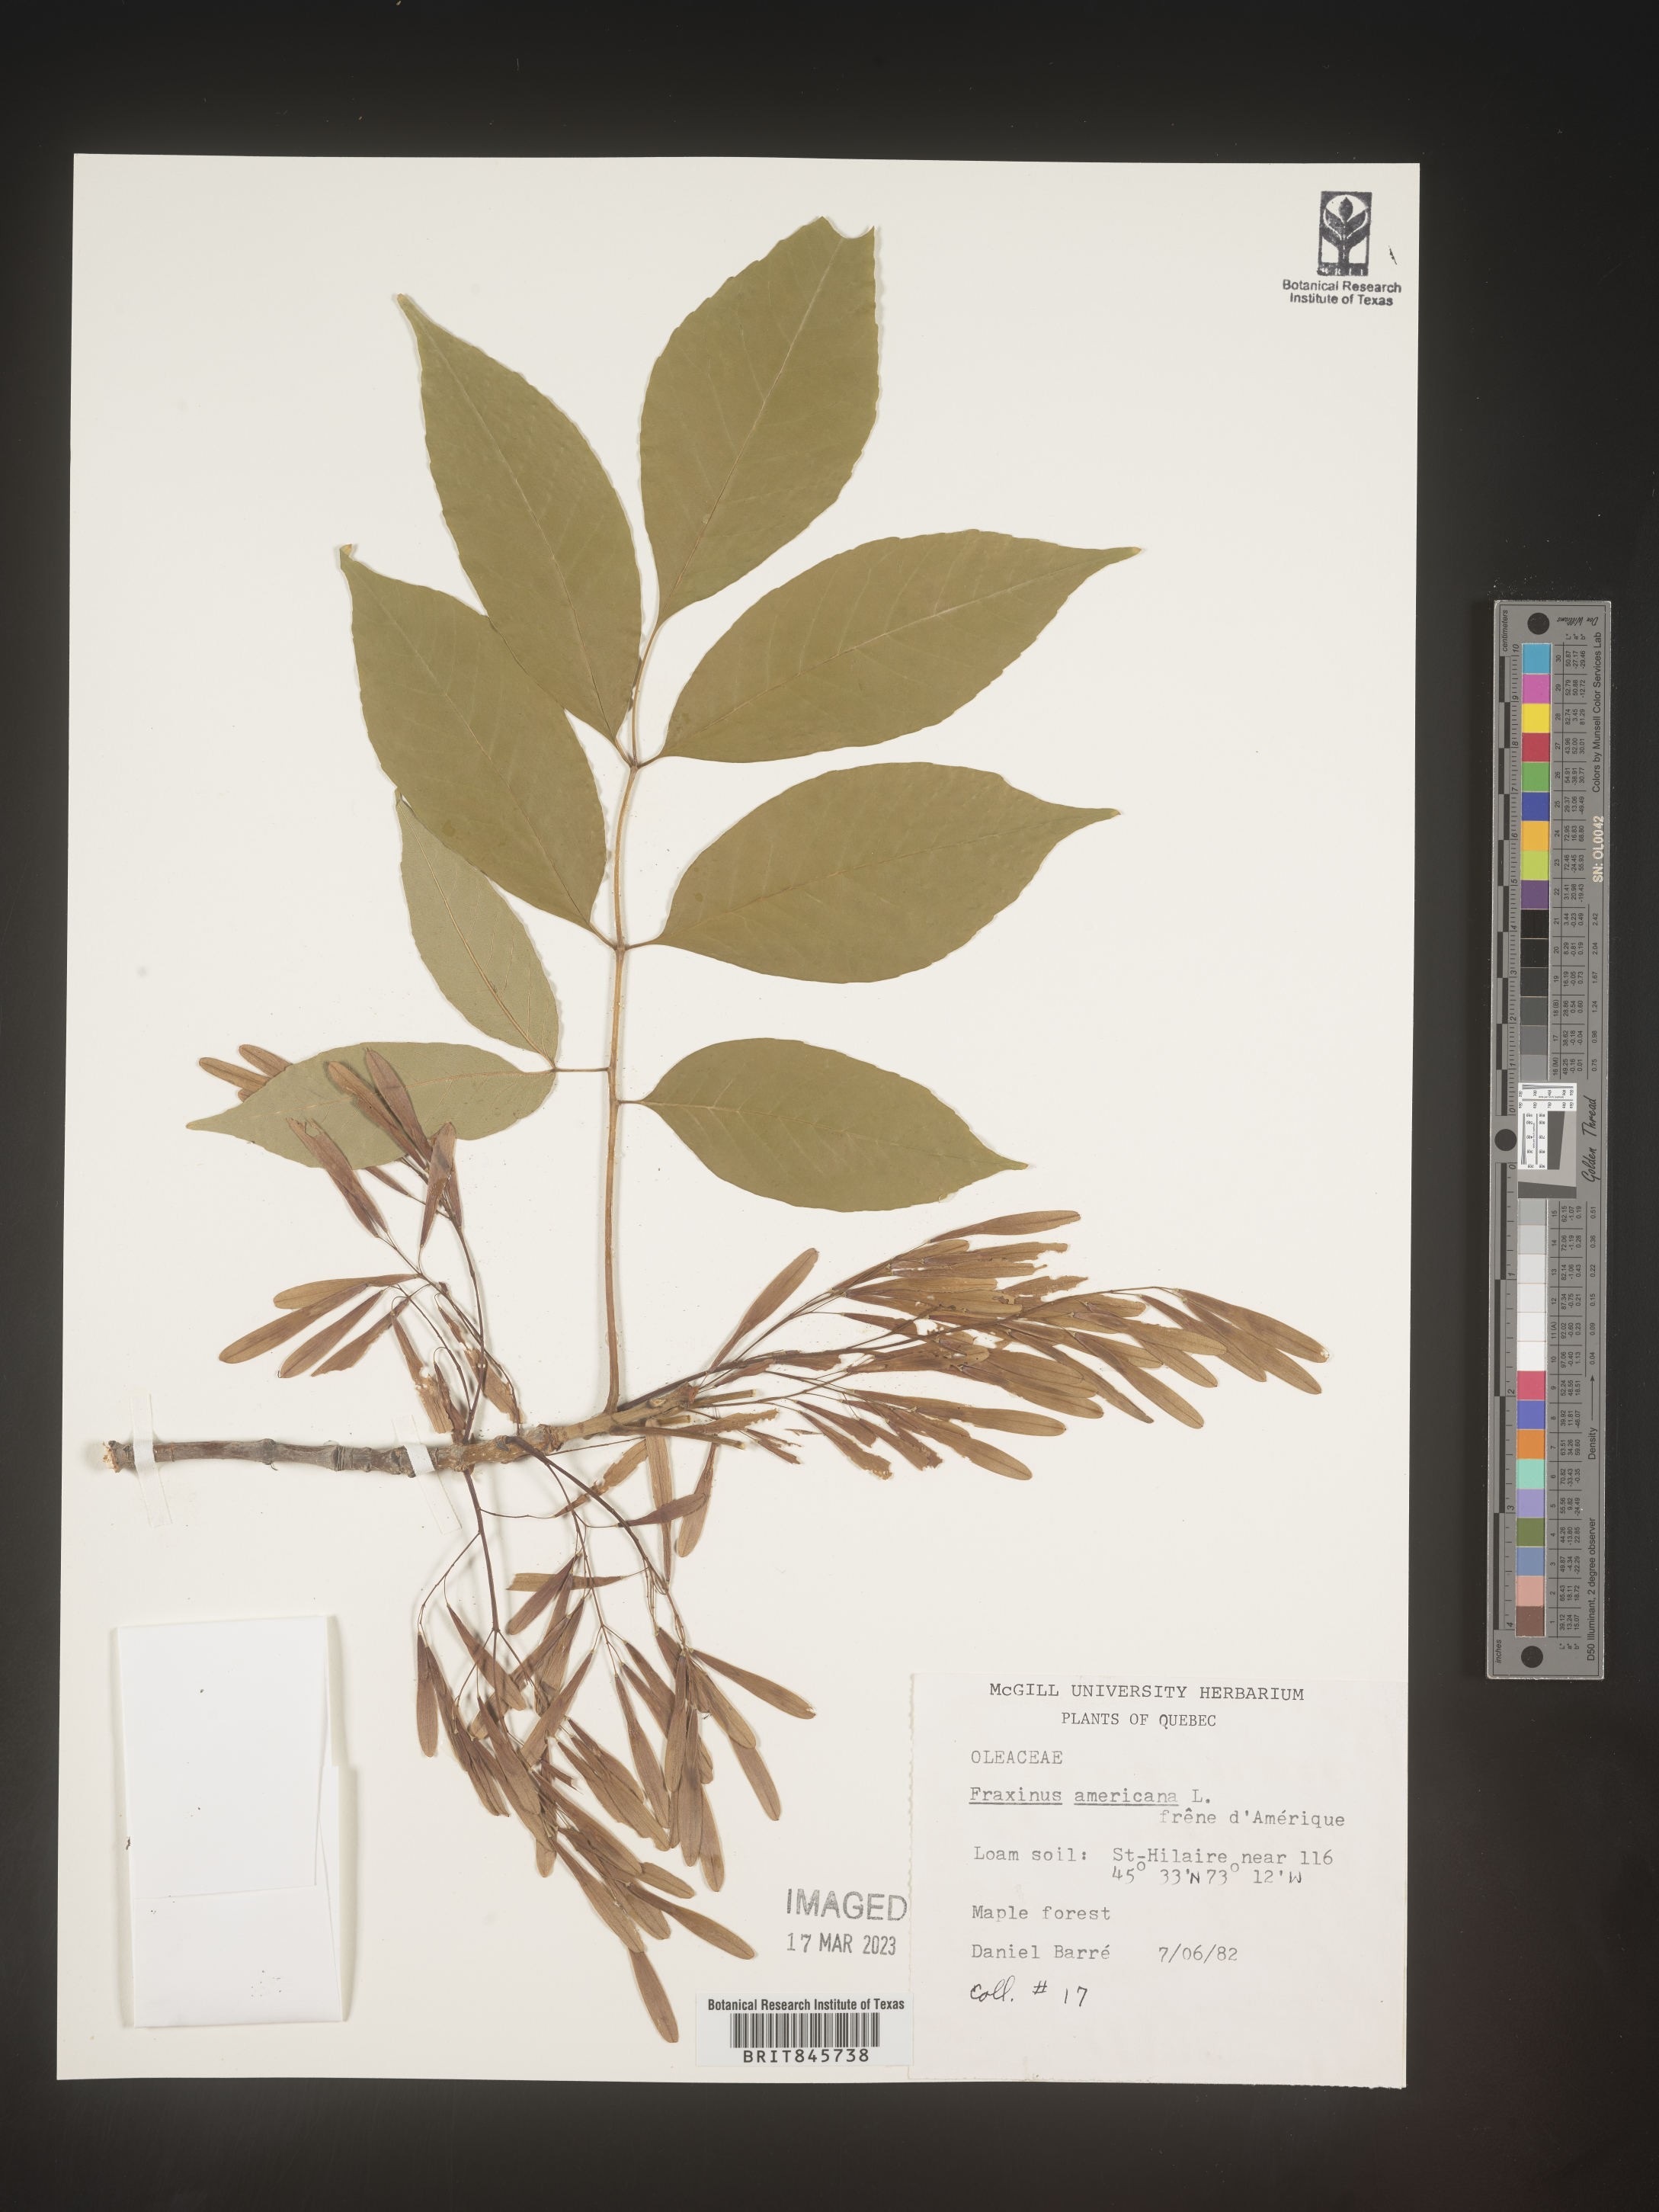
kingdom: Plantae
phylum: Tracheophyta
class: Magnoliopsida
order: Lamiales
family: Oleaceae
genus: Fraxinus
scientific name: Fraxinus americana
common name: White ash
